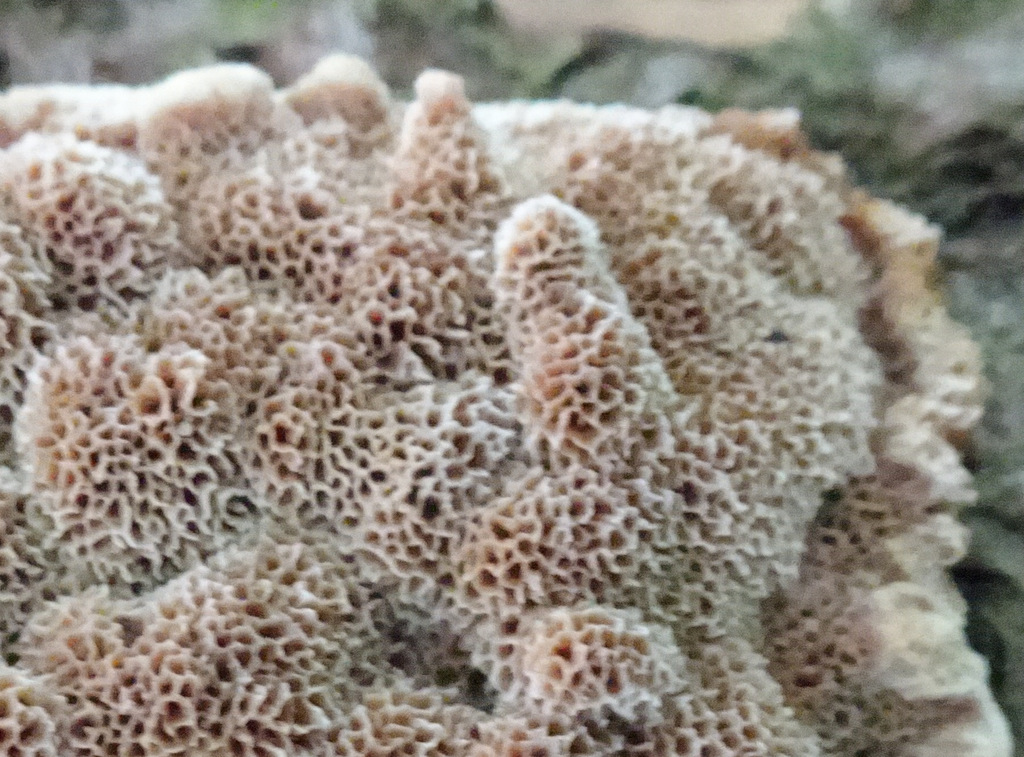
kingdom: Fungi
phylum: Basidiomycota
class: Agaricomycetes
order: Hymenochaetales
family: Hymenochaetaceae
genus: Mensularia
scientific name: Mensularia nodulosa
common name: bøge-spejlporesvamp
